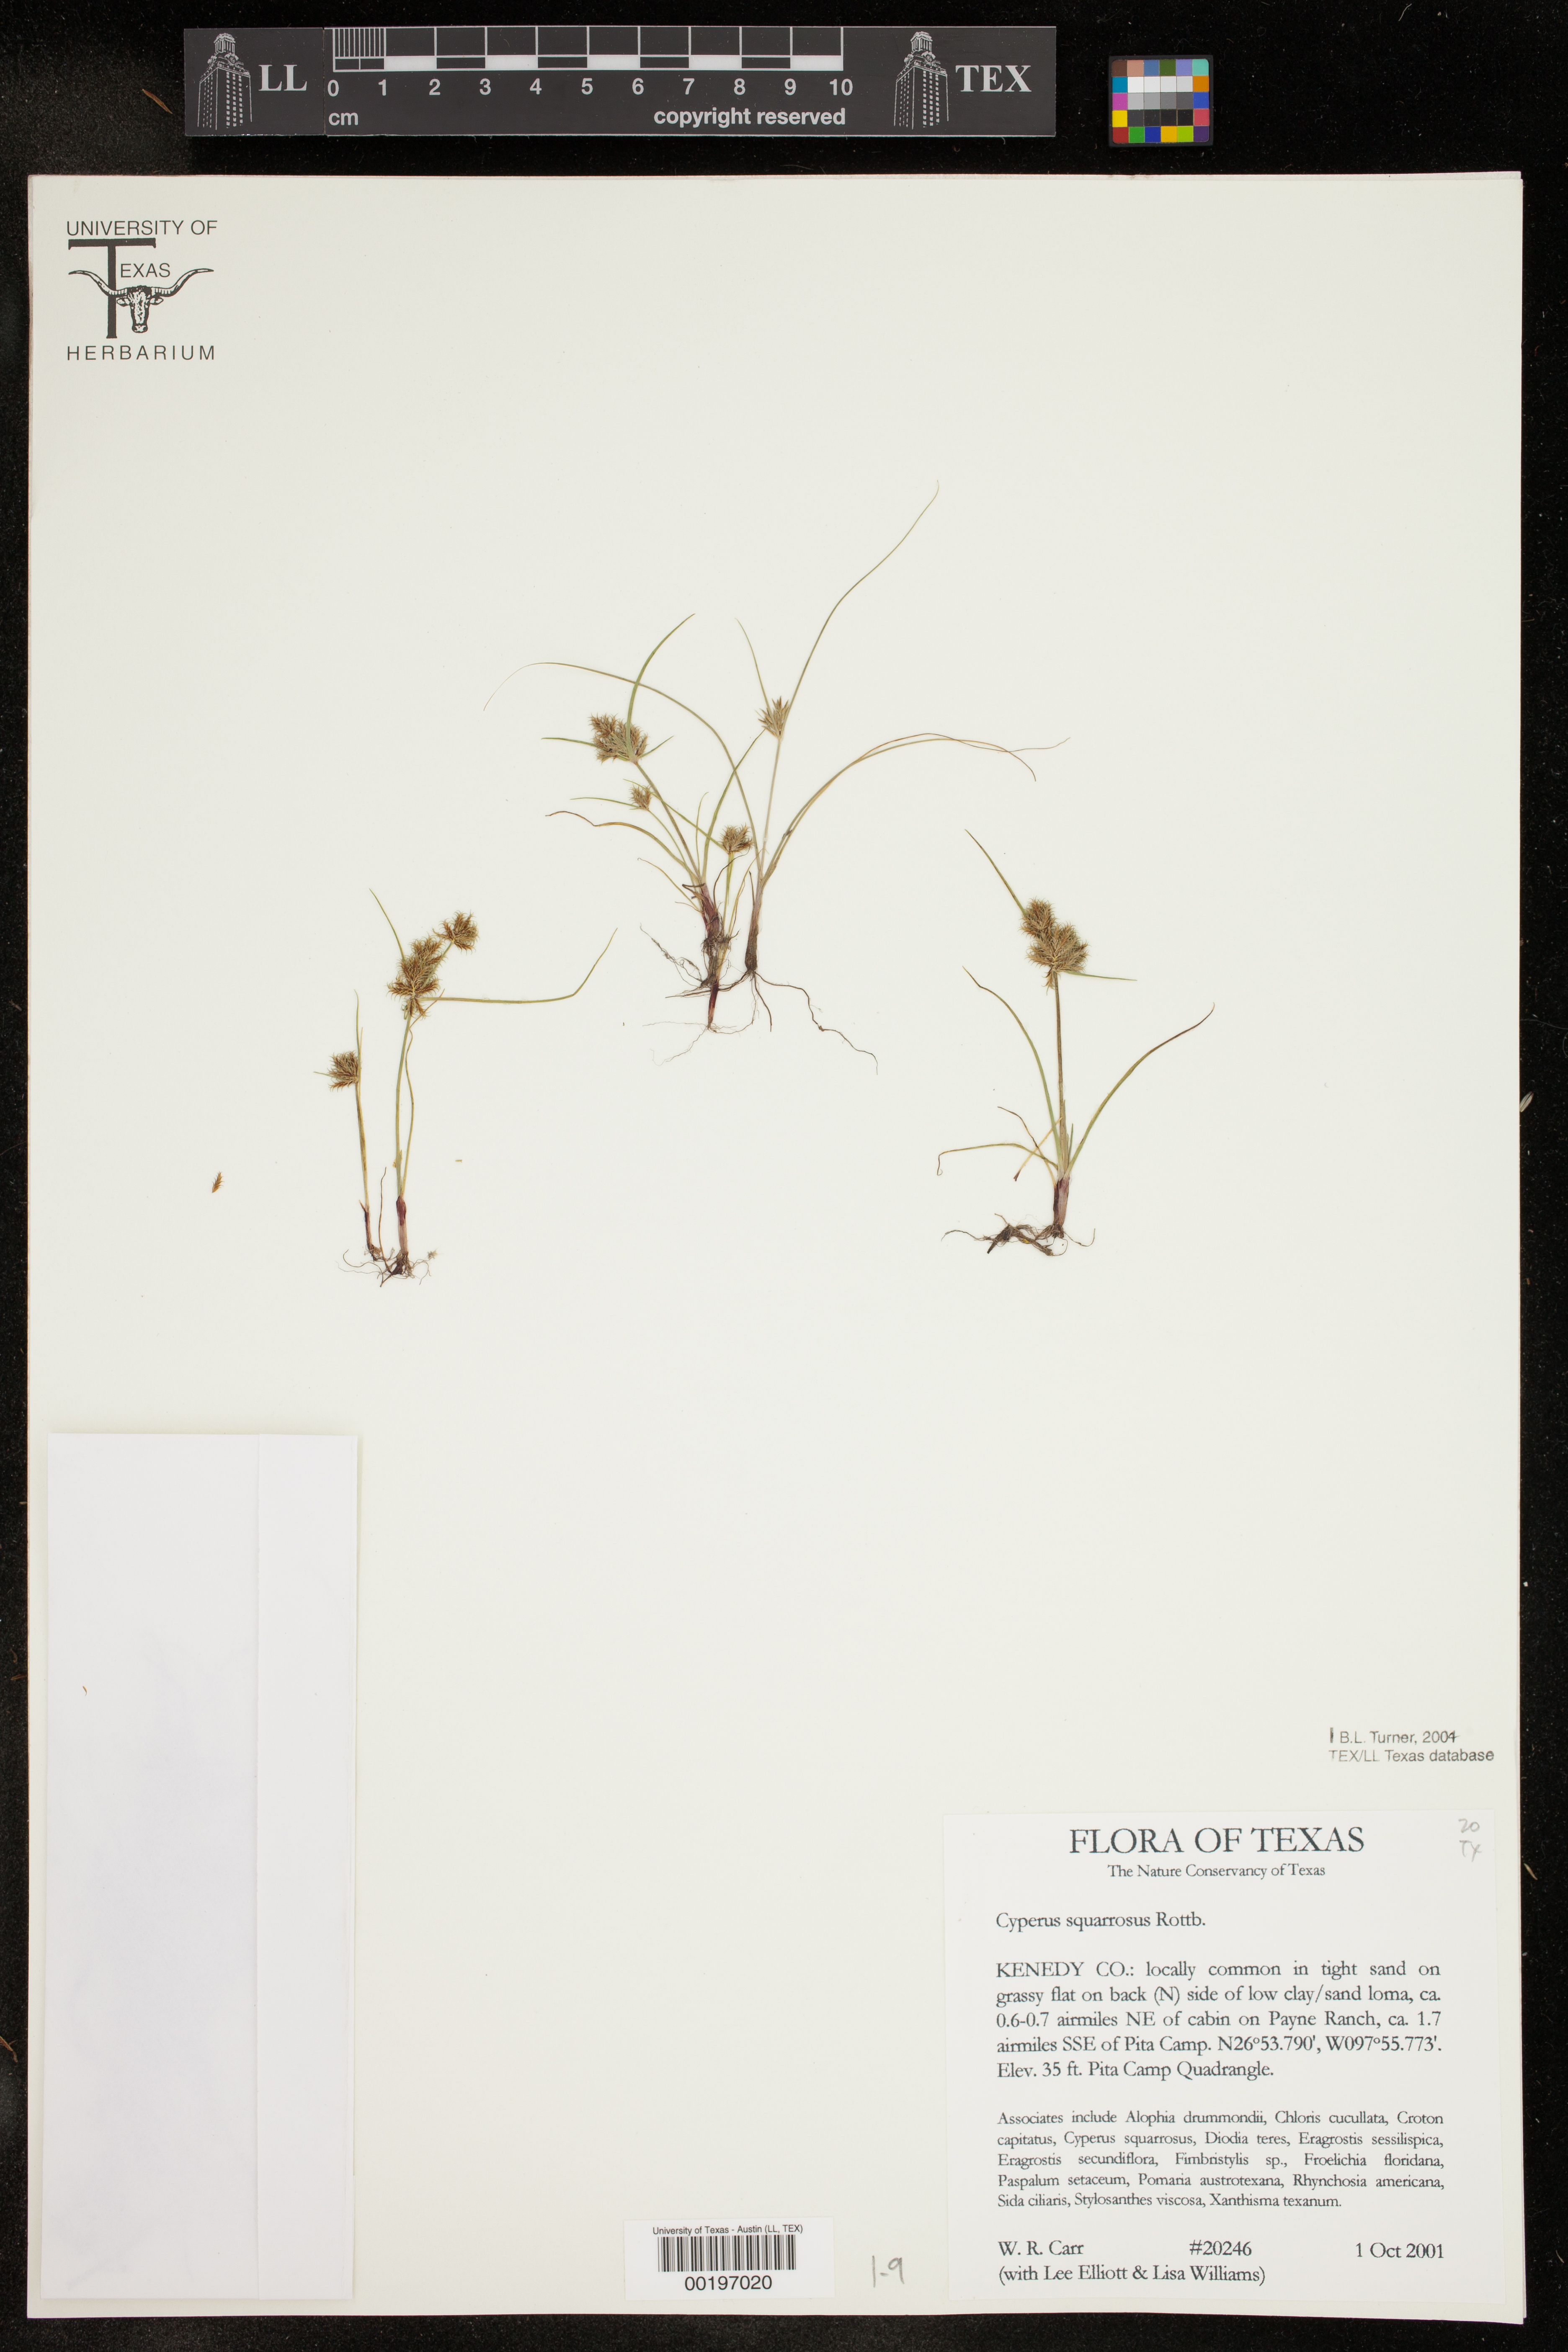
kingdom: Plantae
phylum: Tracheophyta
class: Liliopsida
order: Poales
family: Cyperaceae
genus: Cyperus
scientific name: Cyperus squarrosus
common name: Awned cyperus
